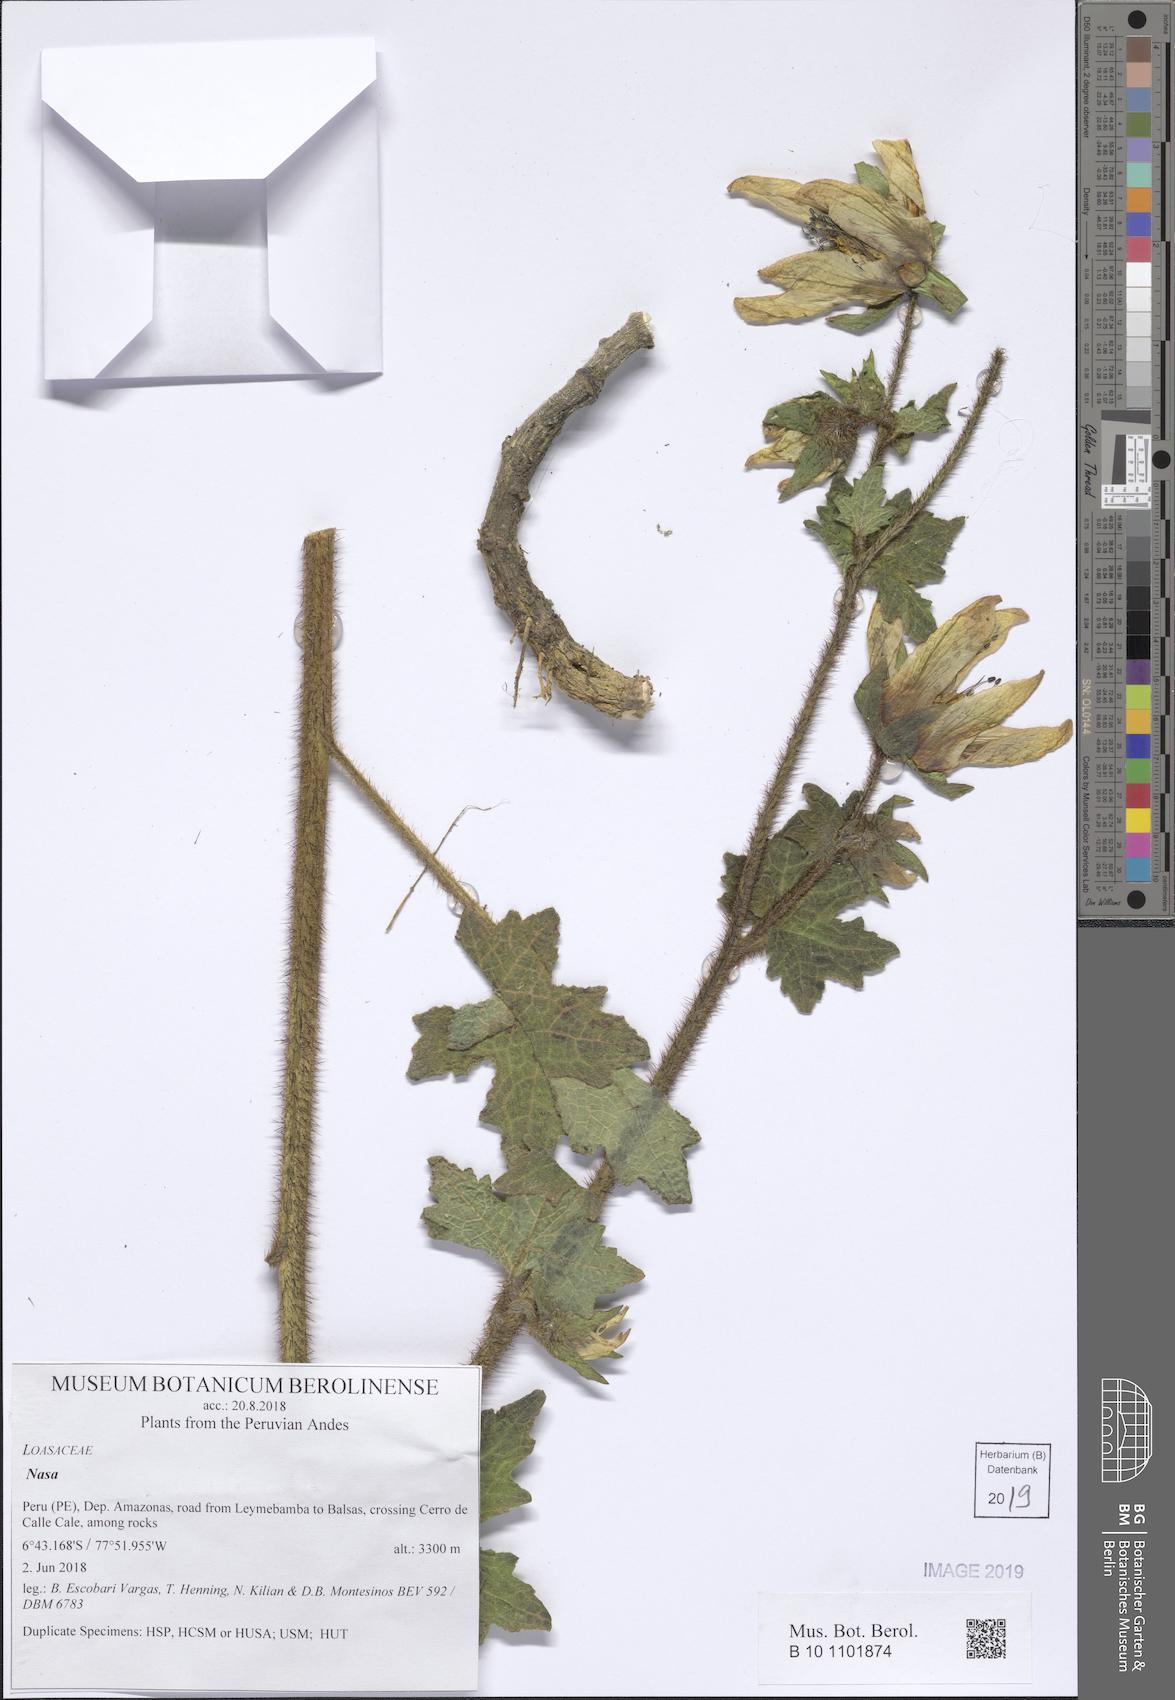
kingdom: Plantae
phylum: Tracheophyta
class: Magnoliopsida
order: Cornales
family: Loasaceae
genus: Nasa
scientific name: Nasa ranunculifolia
